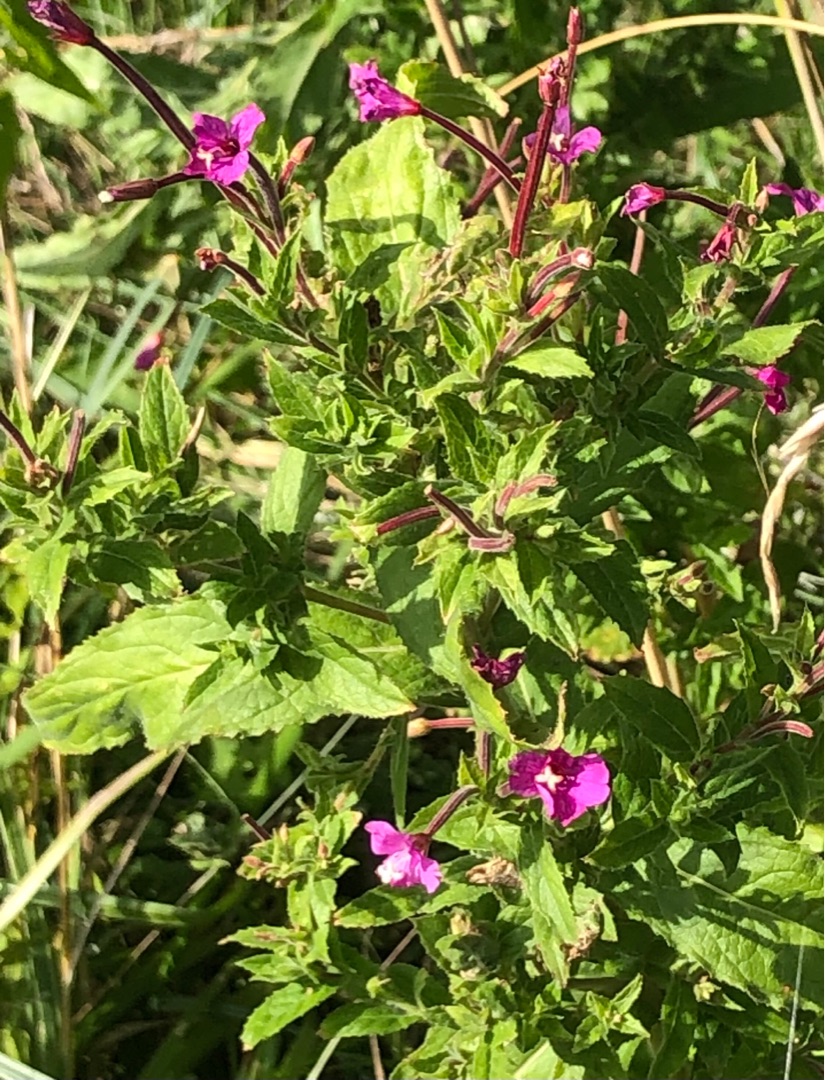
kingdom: Plantae
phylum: Tracheophyta
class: Magnoliopsida
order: Myrtales
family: Onagraceae
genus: Epilobium
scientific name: Epilobium hirsutum
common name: Lådden dueurt
